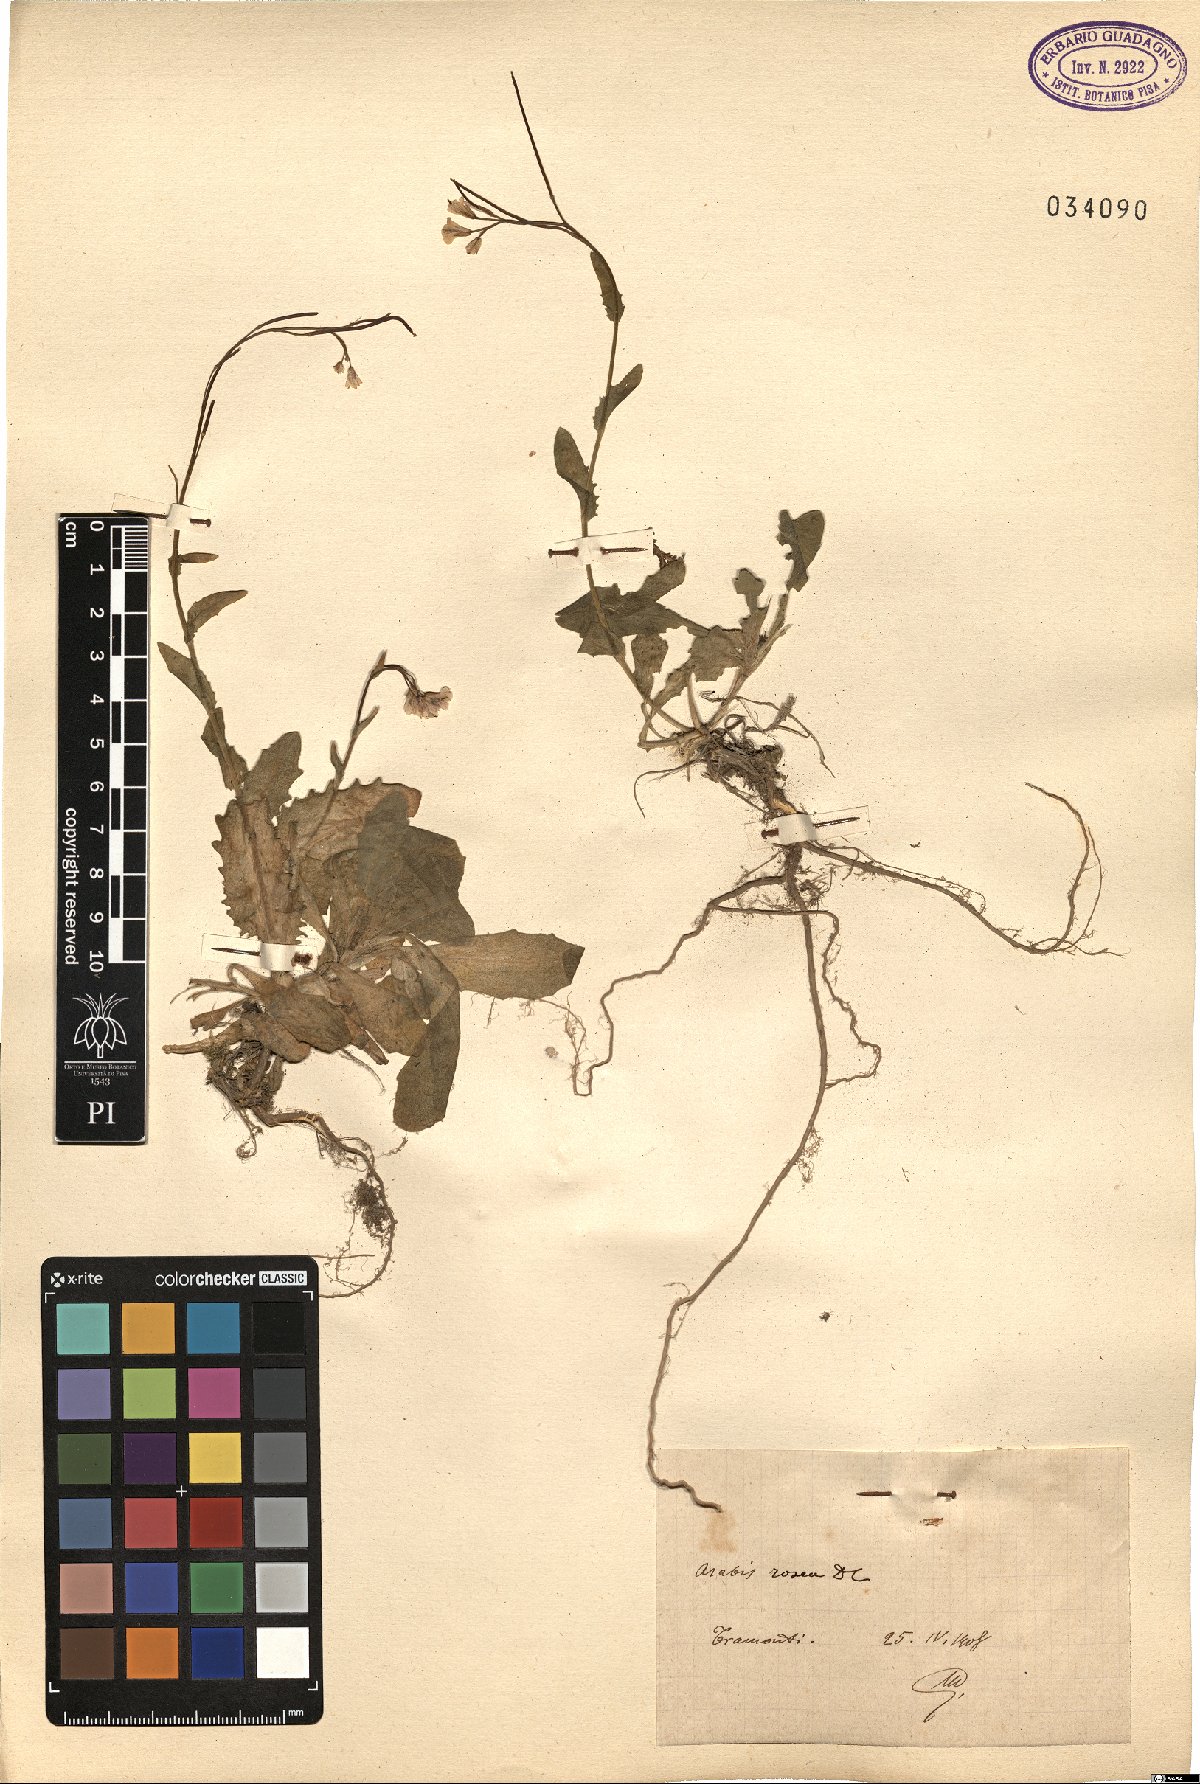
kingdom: Plantae
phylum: Tracheophyta
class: Magnoliopsida
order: Brassicales
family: Brassicaceae
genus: Arabis
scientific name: Arabis collina
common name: Rosy cress
